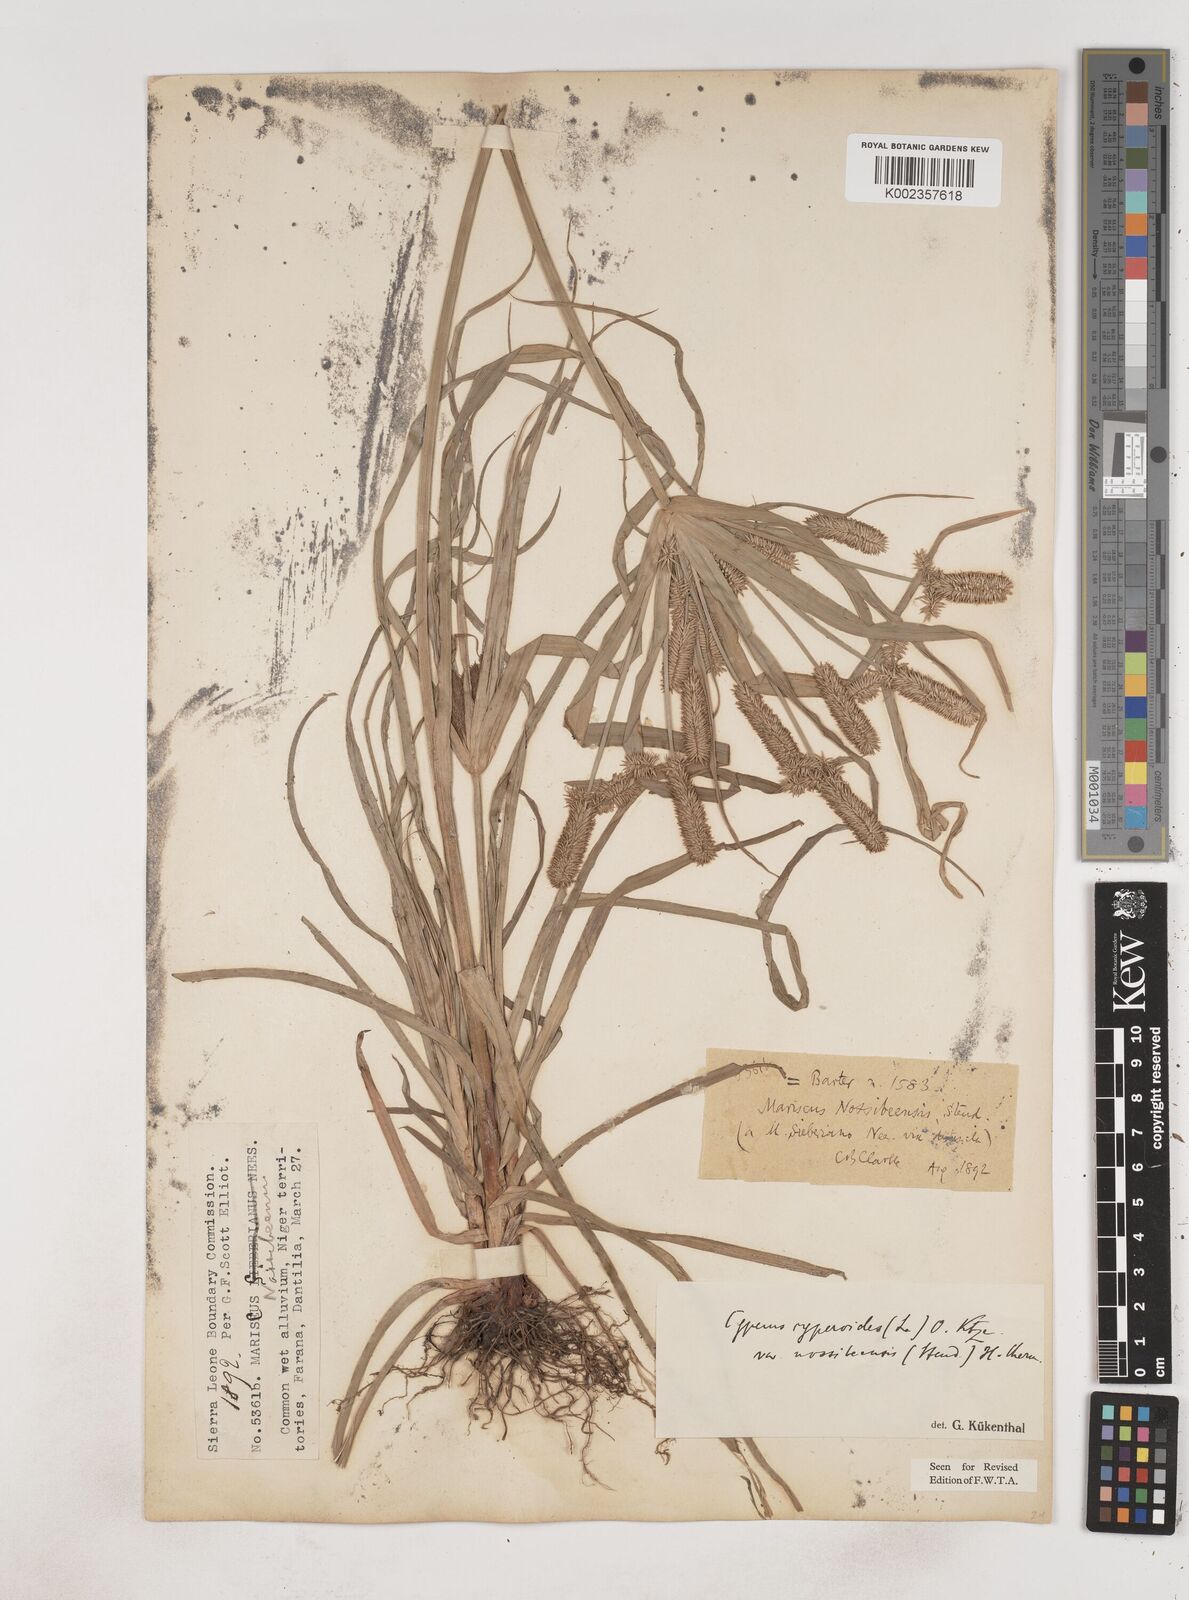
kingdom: Plantae
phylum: Tracheophyta
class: Liliopsida
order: Poales
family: Cyperaceae
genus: Cyperus
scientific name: Cyperus cyperoides
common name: Pacific island flat sedge
